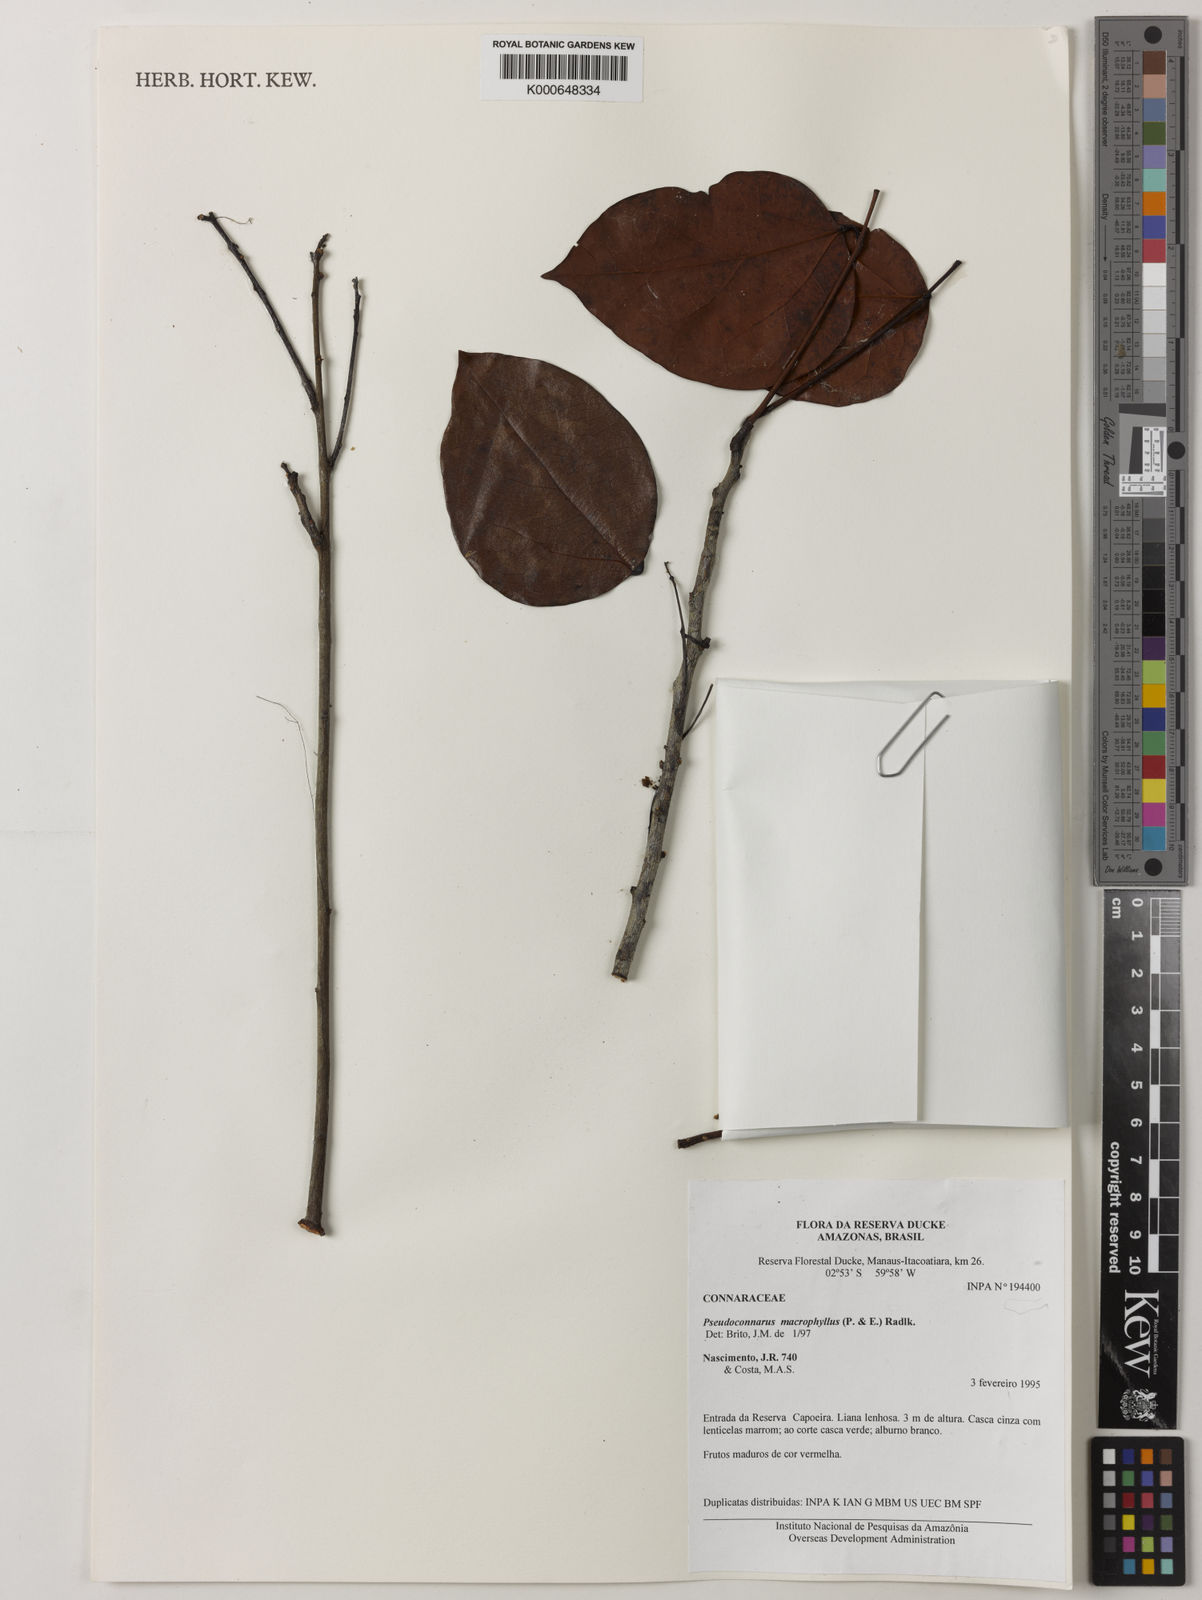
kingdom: Plantae
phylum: Tracheophyta
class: Magnoliopsida
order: Oxalidales
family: Connaraceae
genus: Pseudoconnarus
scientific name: Pseudoconnarus macrophyllus
